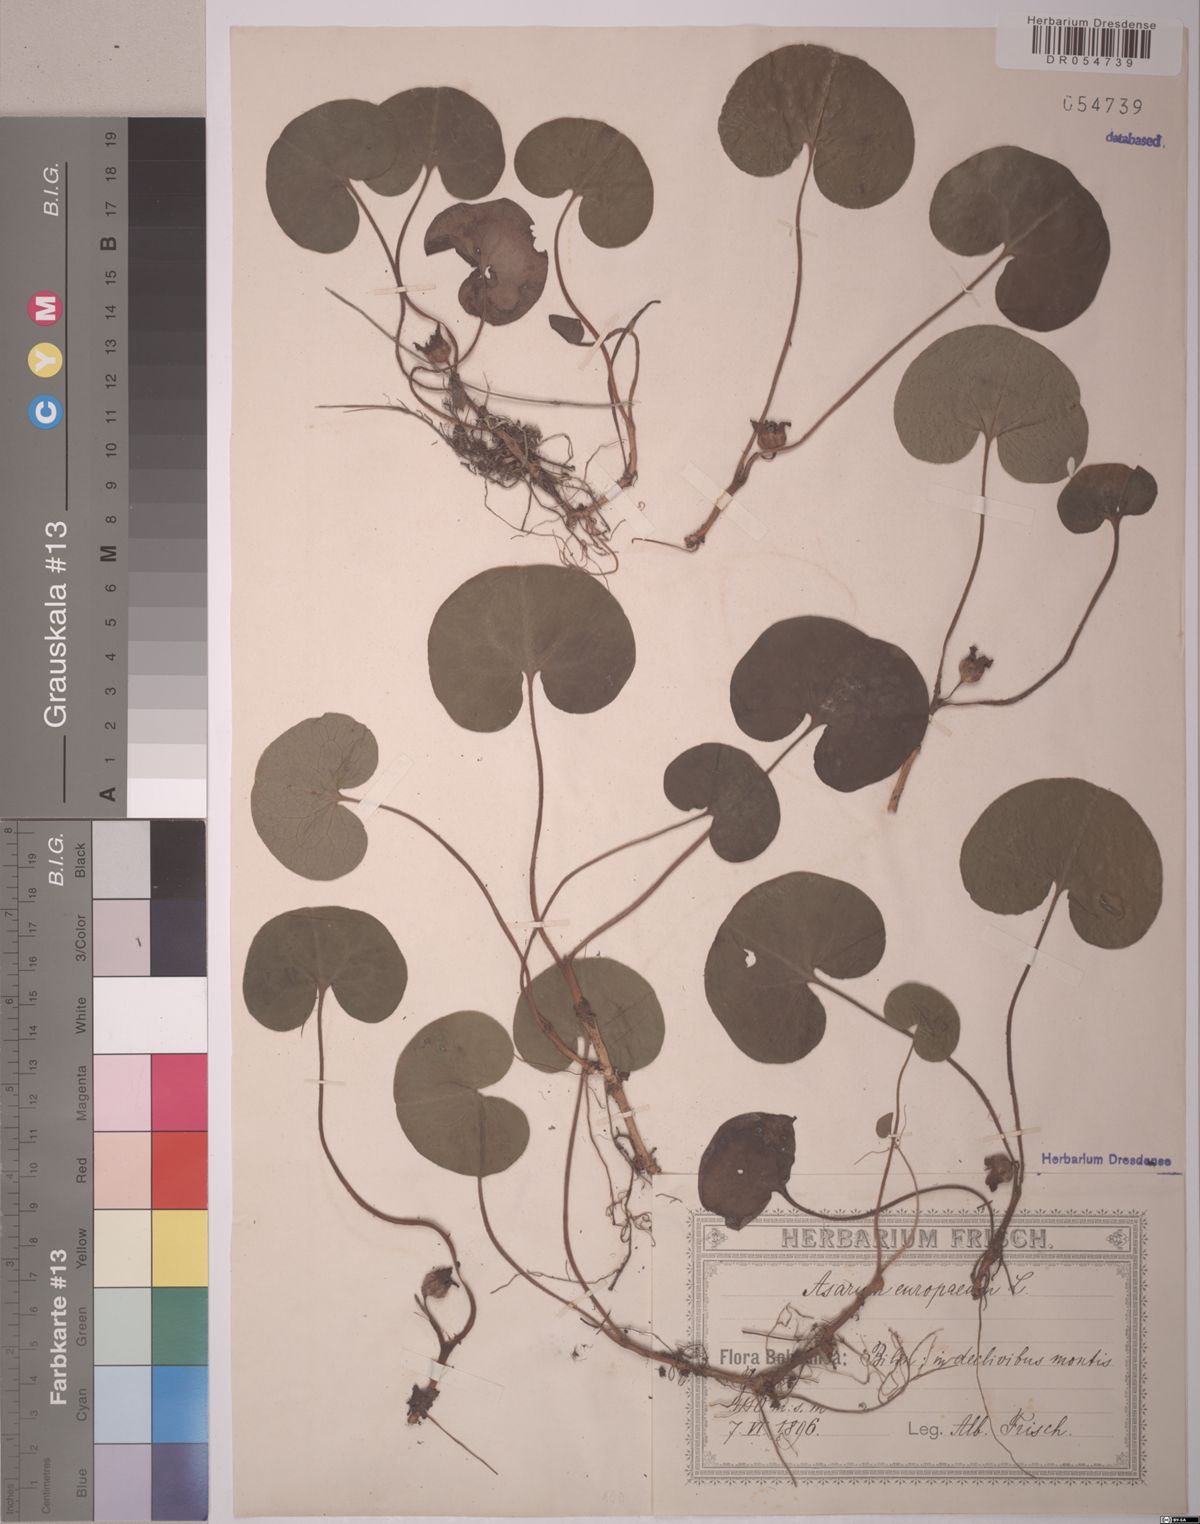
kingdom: Plantae
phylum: Tracheophyta
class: Magnoliopsida
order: Piperales
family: Aristolochiaceae
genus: Asarum
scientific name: Asarum europaeum
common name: Asarabacca
